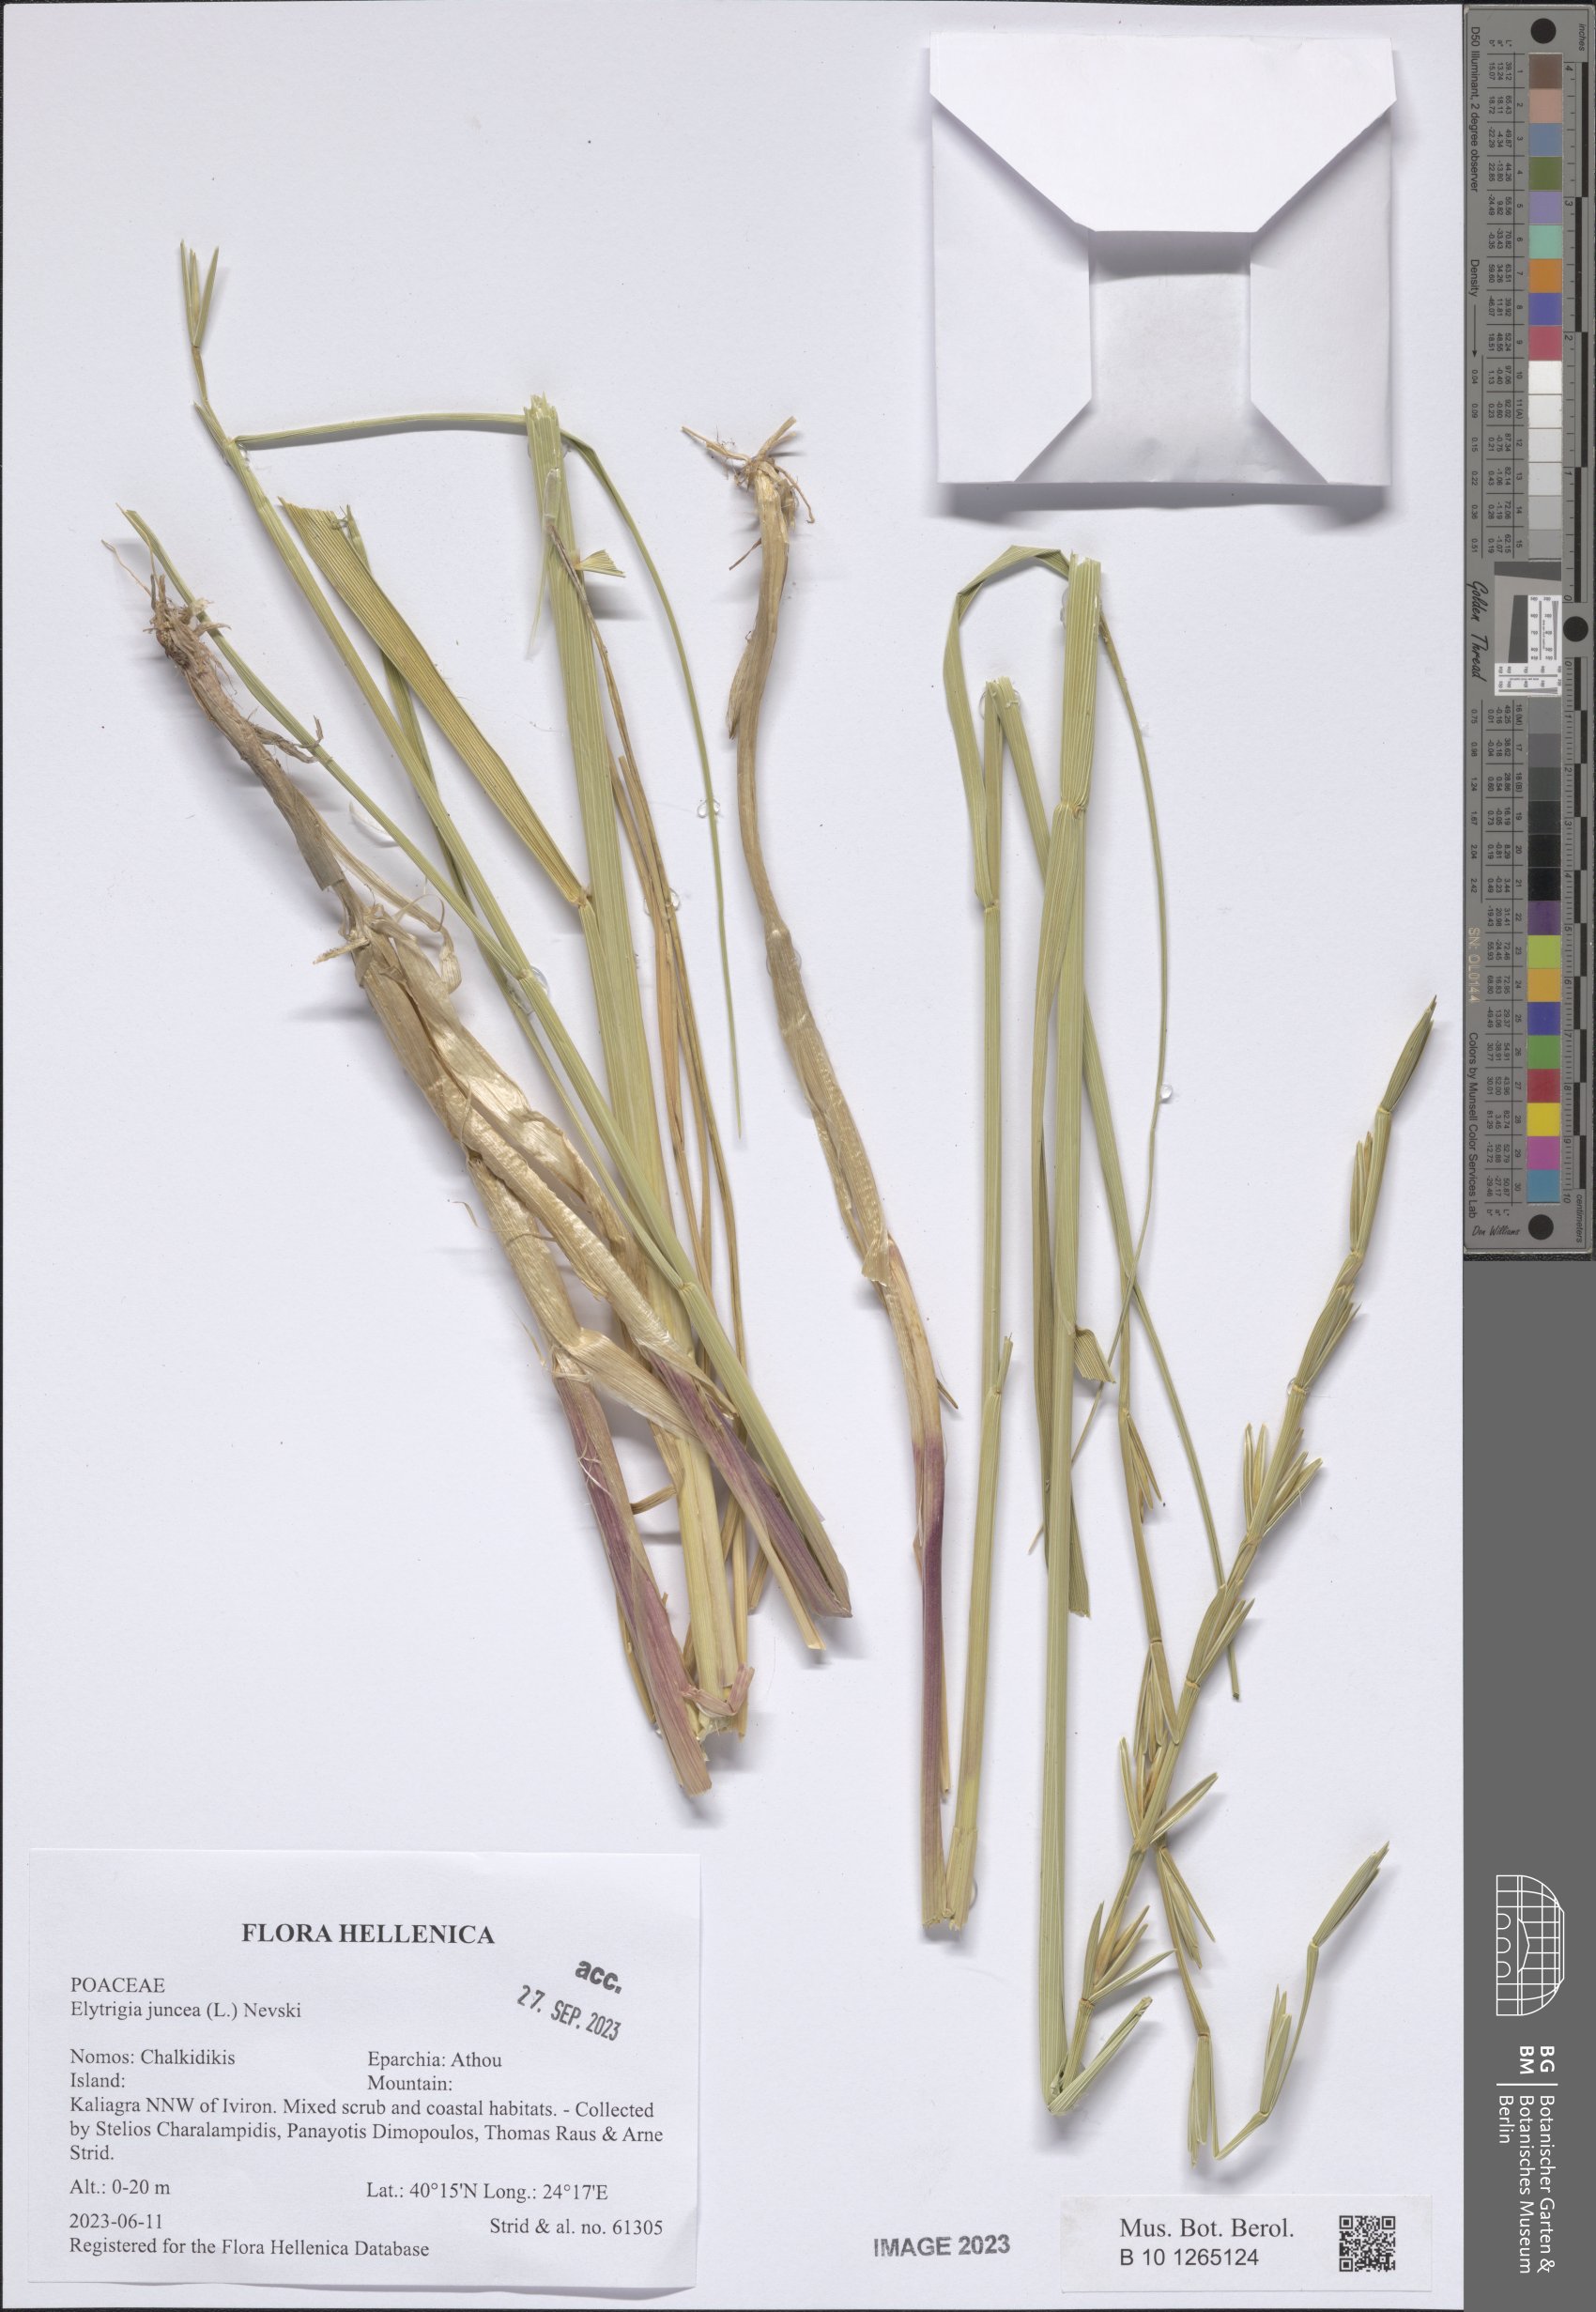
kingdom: Plantae
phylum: Tracheophyta
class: Liliopsida
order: Poales
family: Poaceae
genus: Thinopyrum
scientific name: Thinopyrum junceum
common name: Russian wheatgrass
